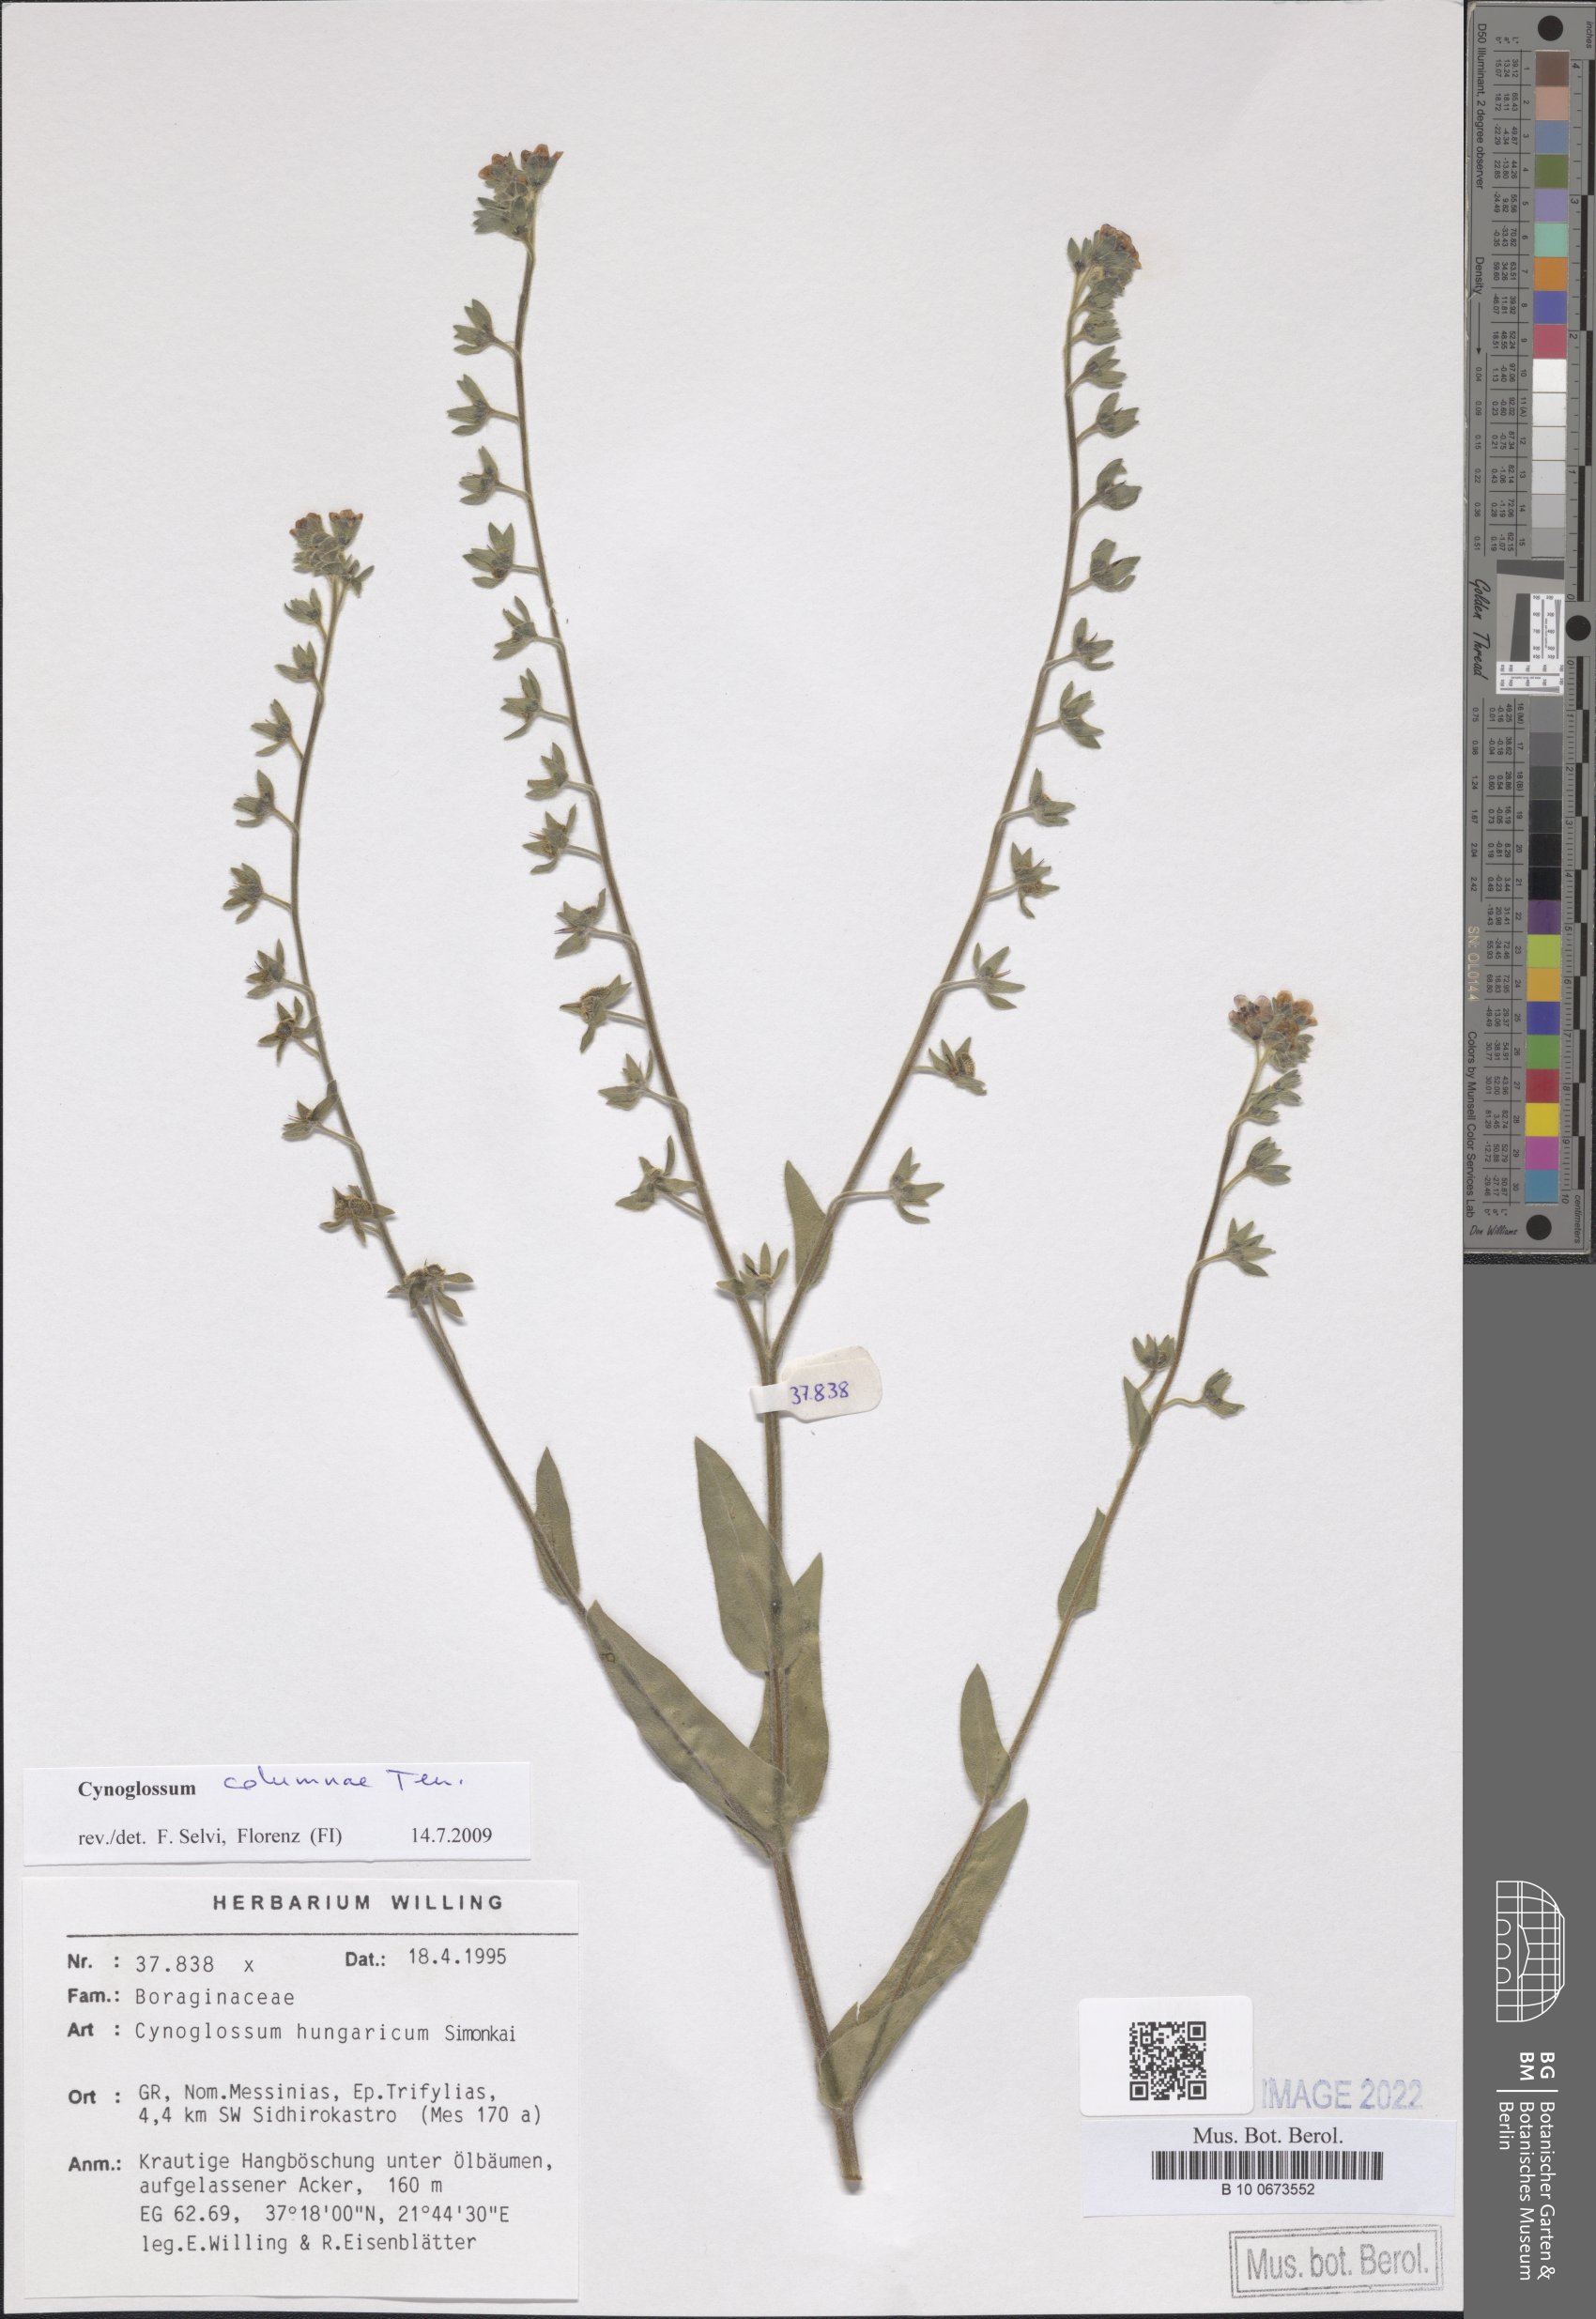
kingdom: Plantae
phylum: Tracheophyta
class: Magnoliopsida
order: Boraginales
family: Boraginaceae
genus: Rindera
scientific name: Rindera columnae
